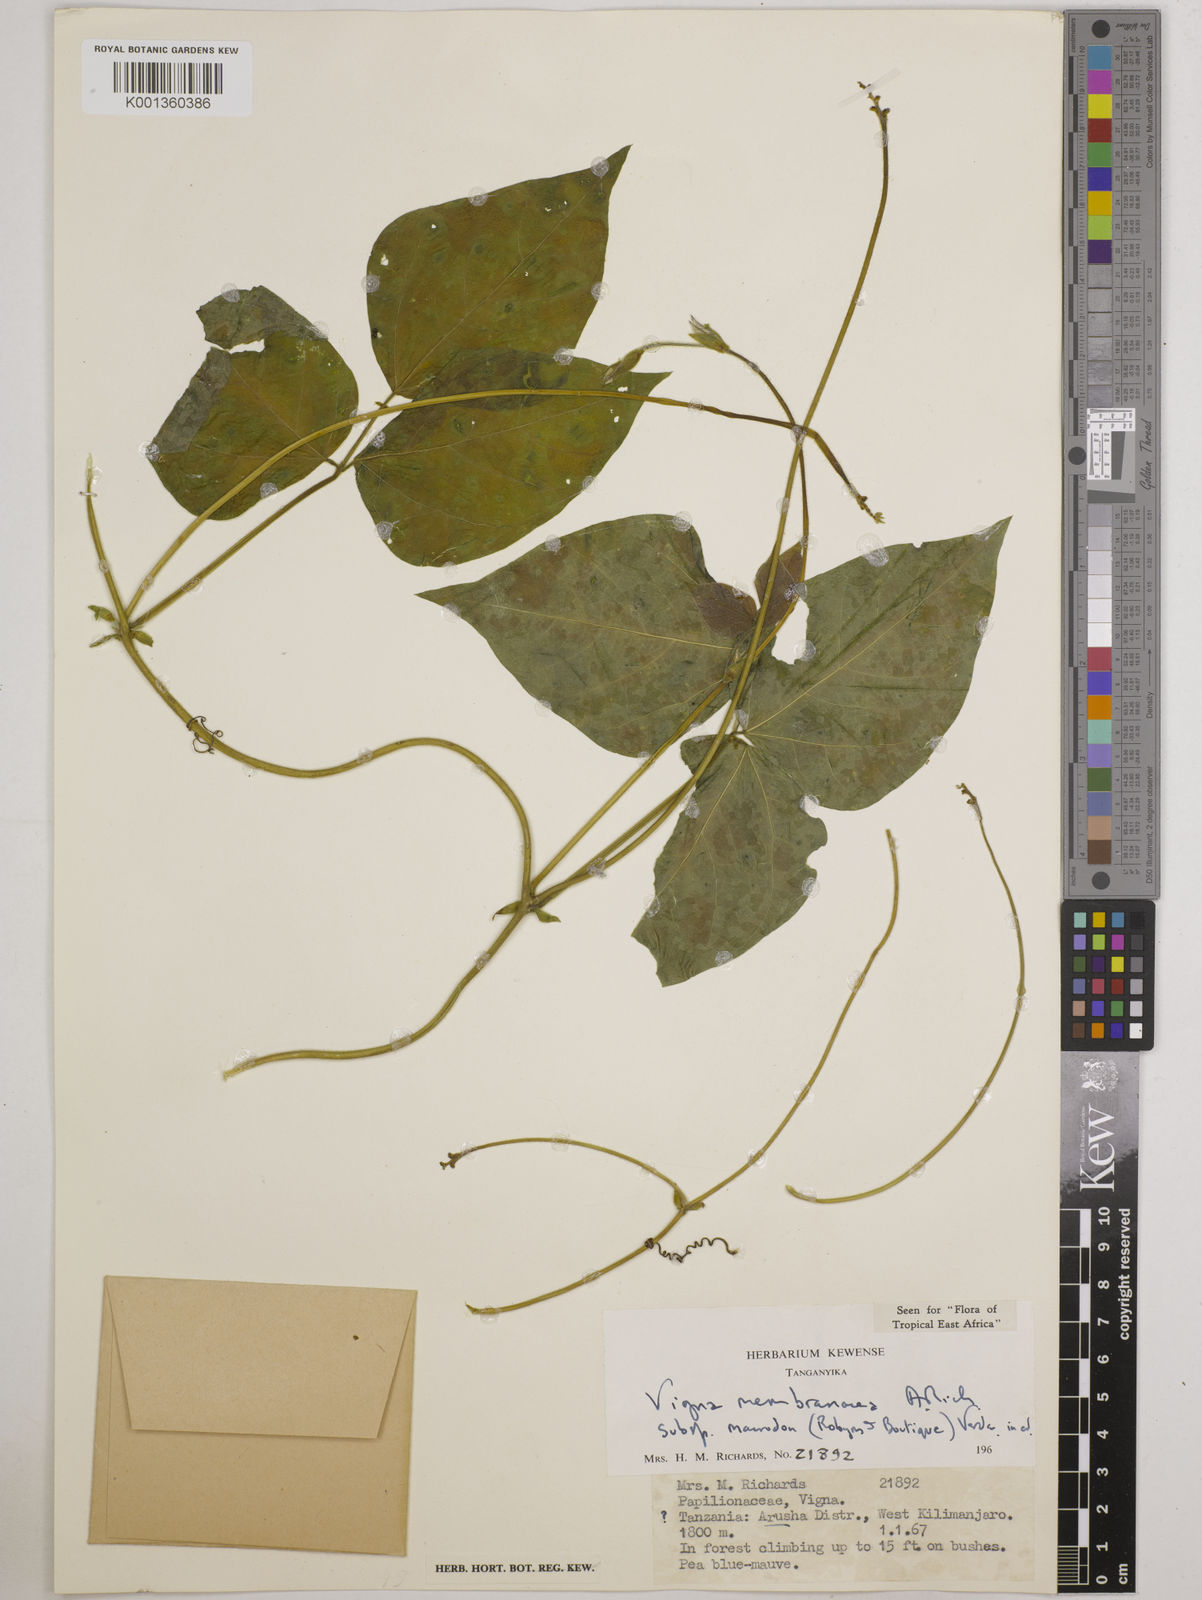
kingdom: Plantae
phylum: Tracheophyta
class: Magnoliopsida
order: Fabales
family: Fabaceae
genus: Vigna
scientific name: Vigna
